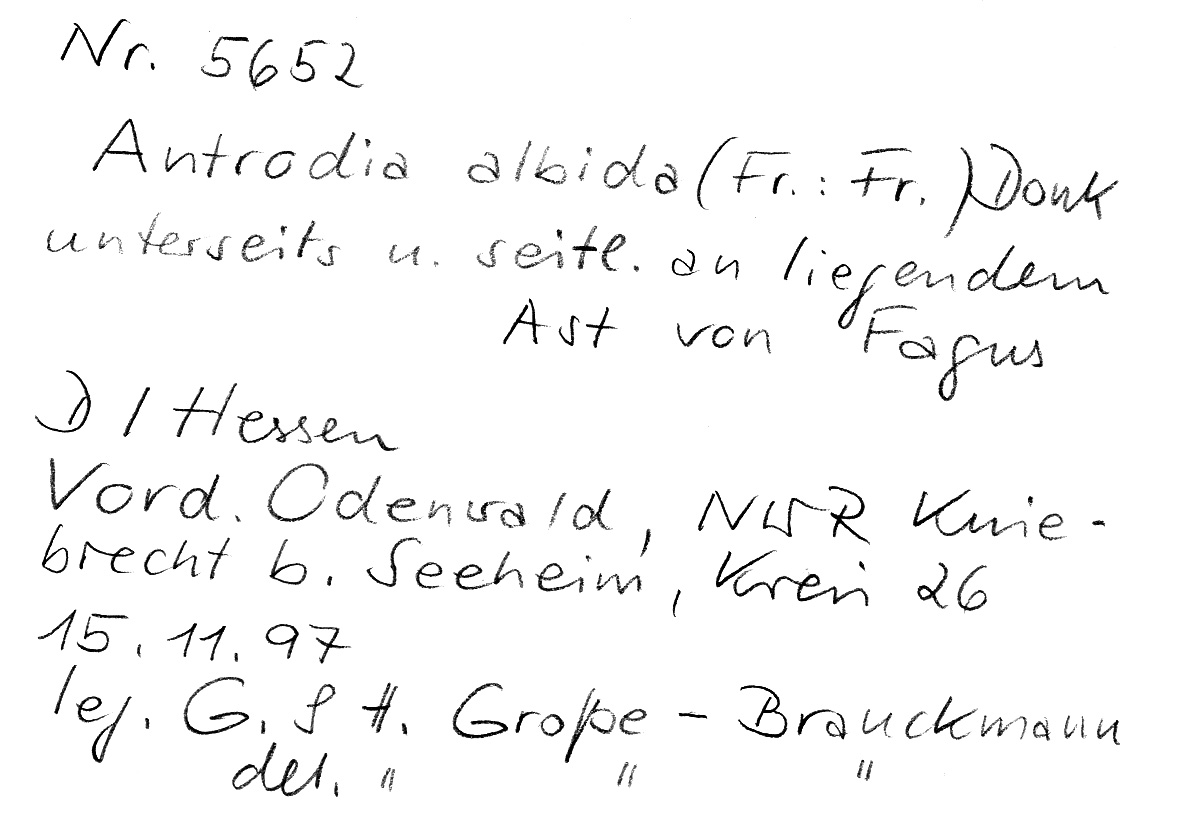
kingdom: Fungi
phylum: Basidiomycota
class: Agaricomycetes
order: Polyporales
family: Fomitopsidaceae
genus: Antrodia
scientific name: Antrodia albida
